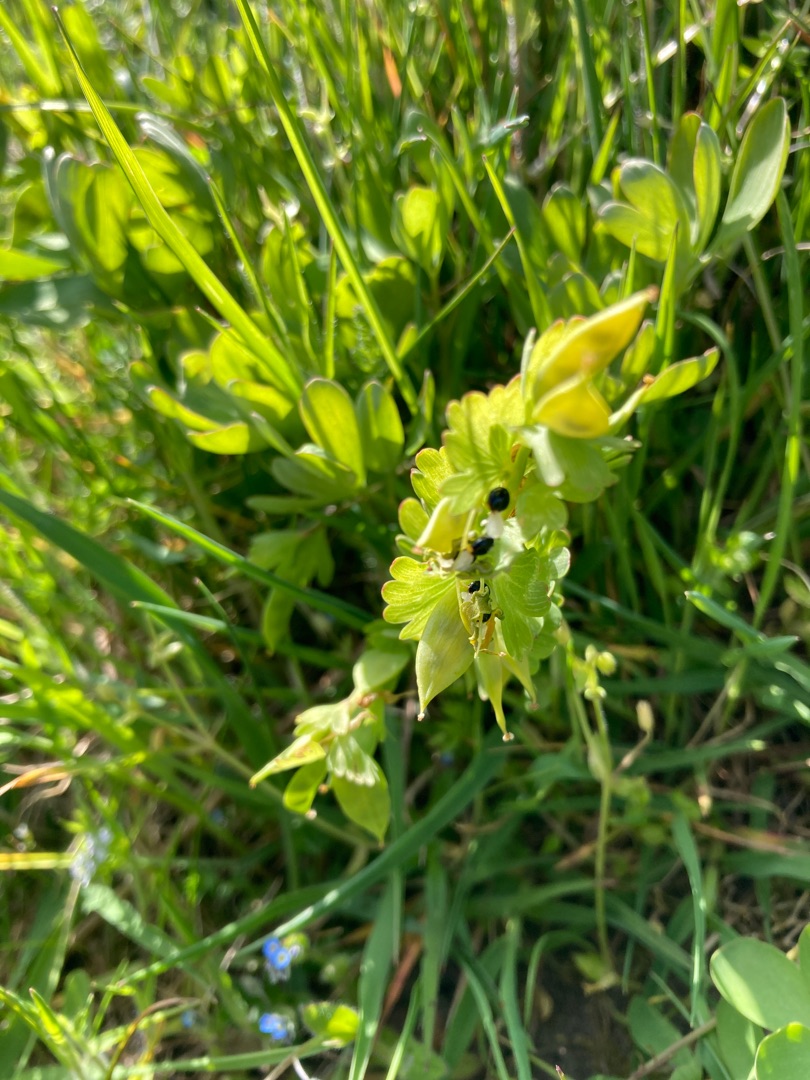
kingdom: Plantae
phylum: Tracheophyta
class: Magnoliopsida
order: Ranunculales
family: Papaveraceae
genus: Corydalis
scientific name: Corydalis pumila
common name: Finger-lærkespore
